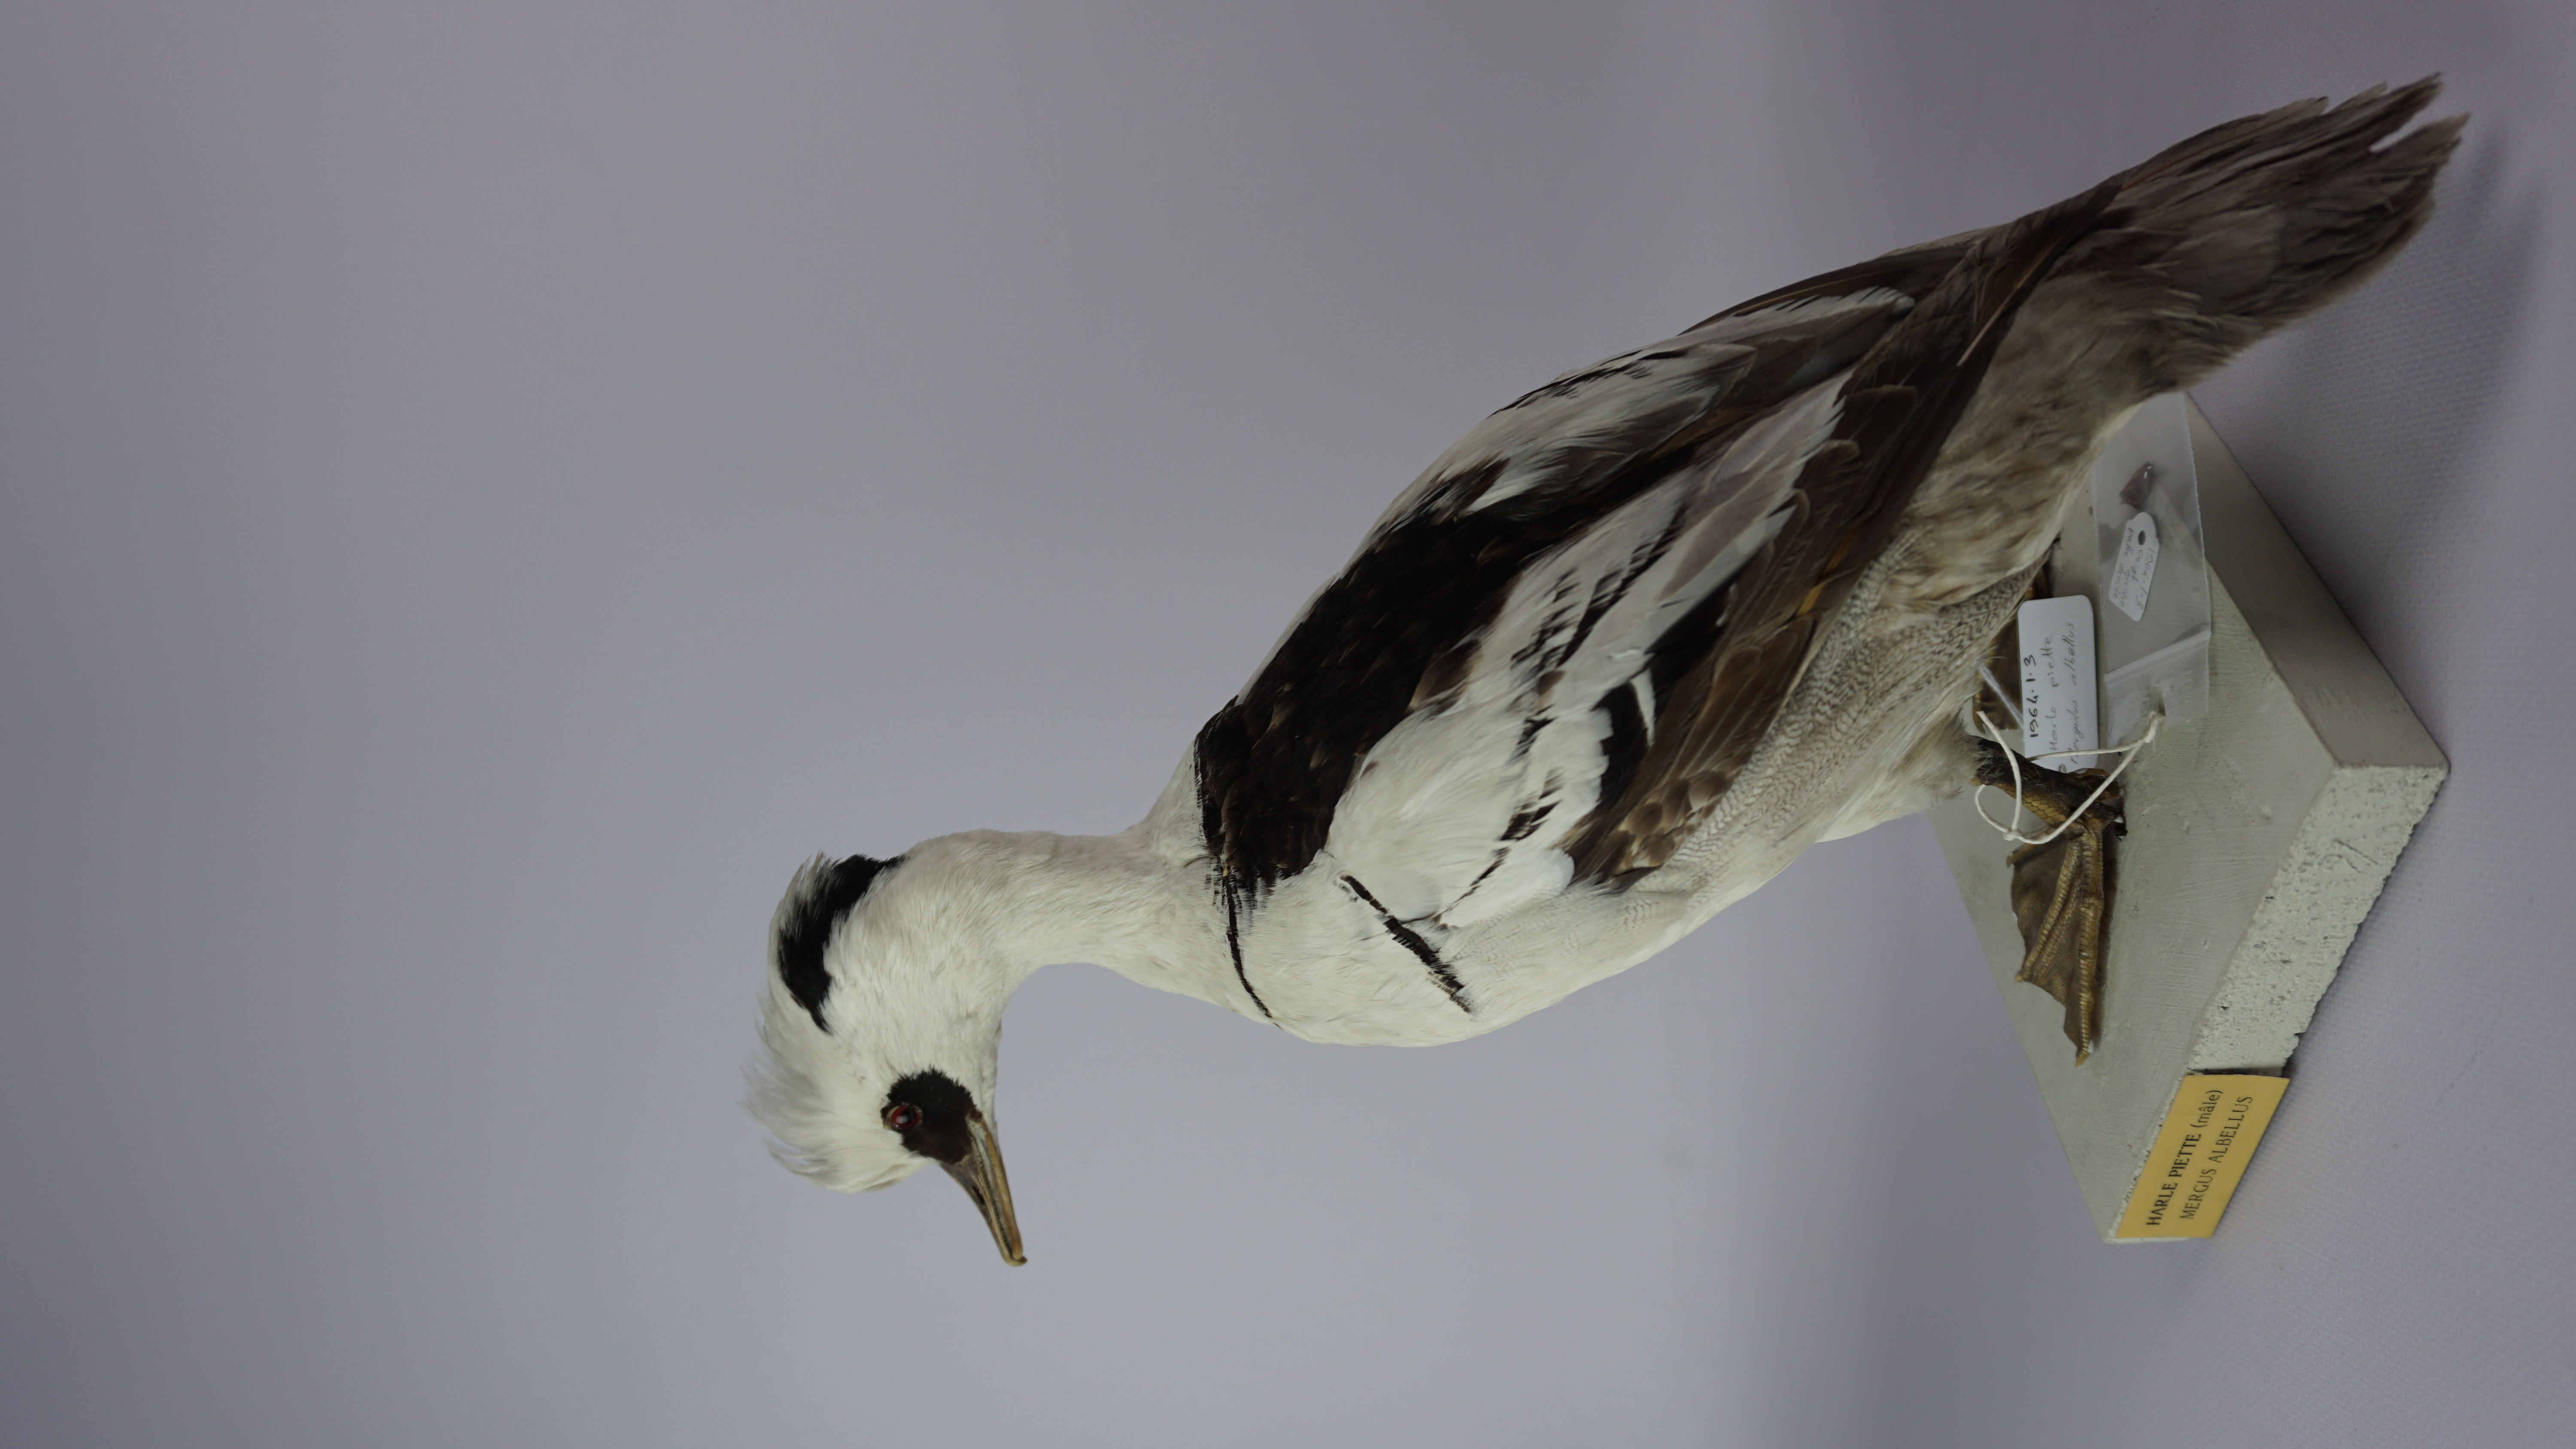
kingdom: Animalia
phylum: Chordata
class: Aves
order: Anseriformes
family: Anatidae
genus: Mergellus
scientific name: Mergellus albellus
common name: Smew
